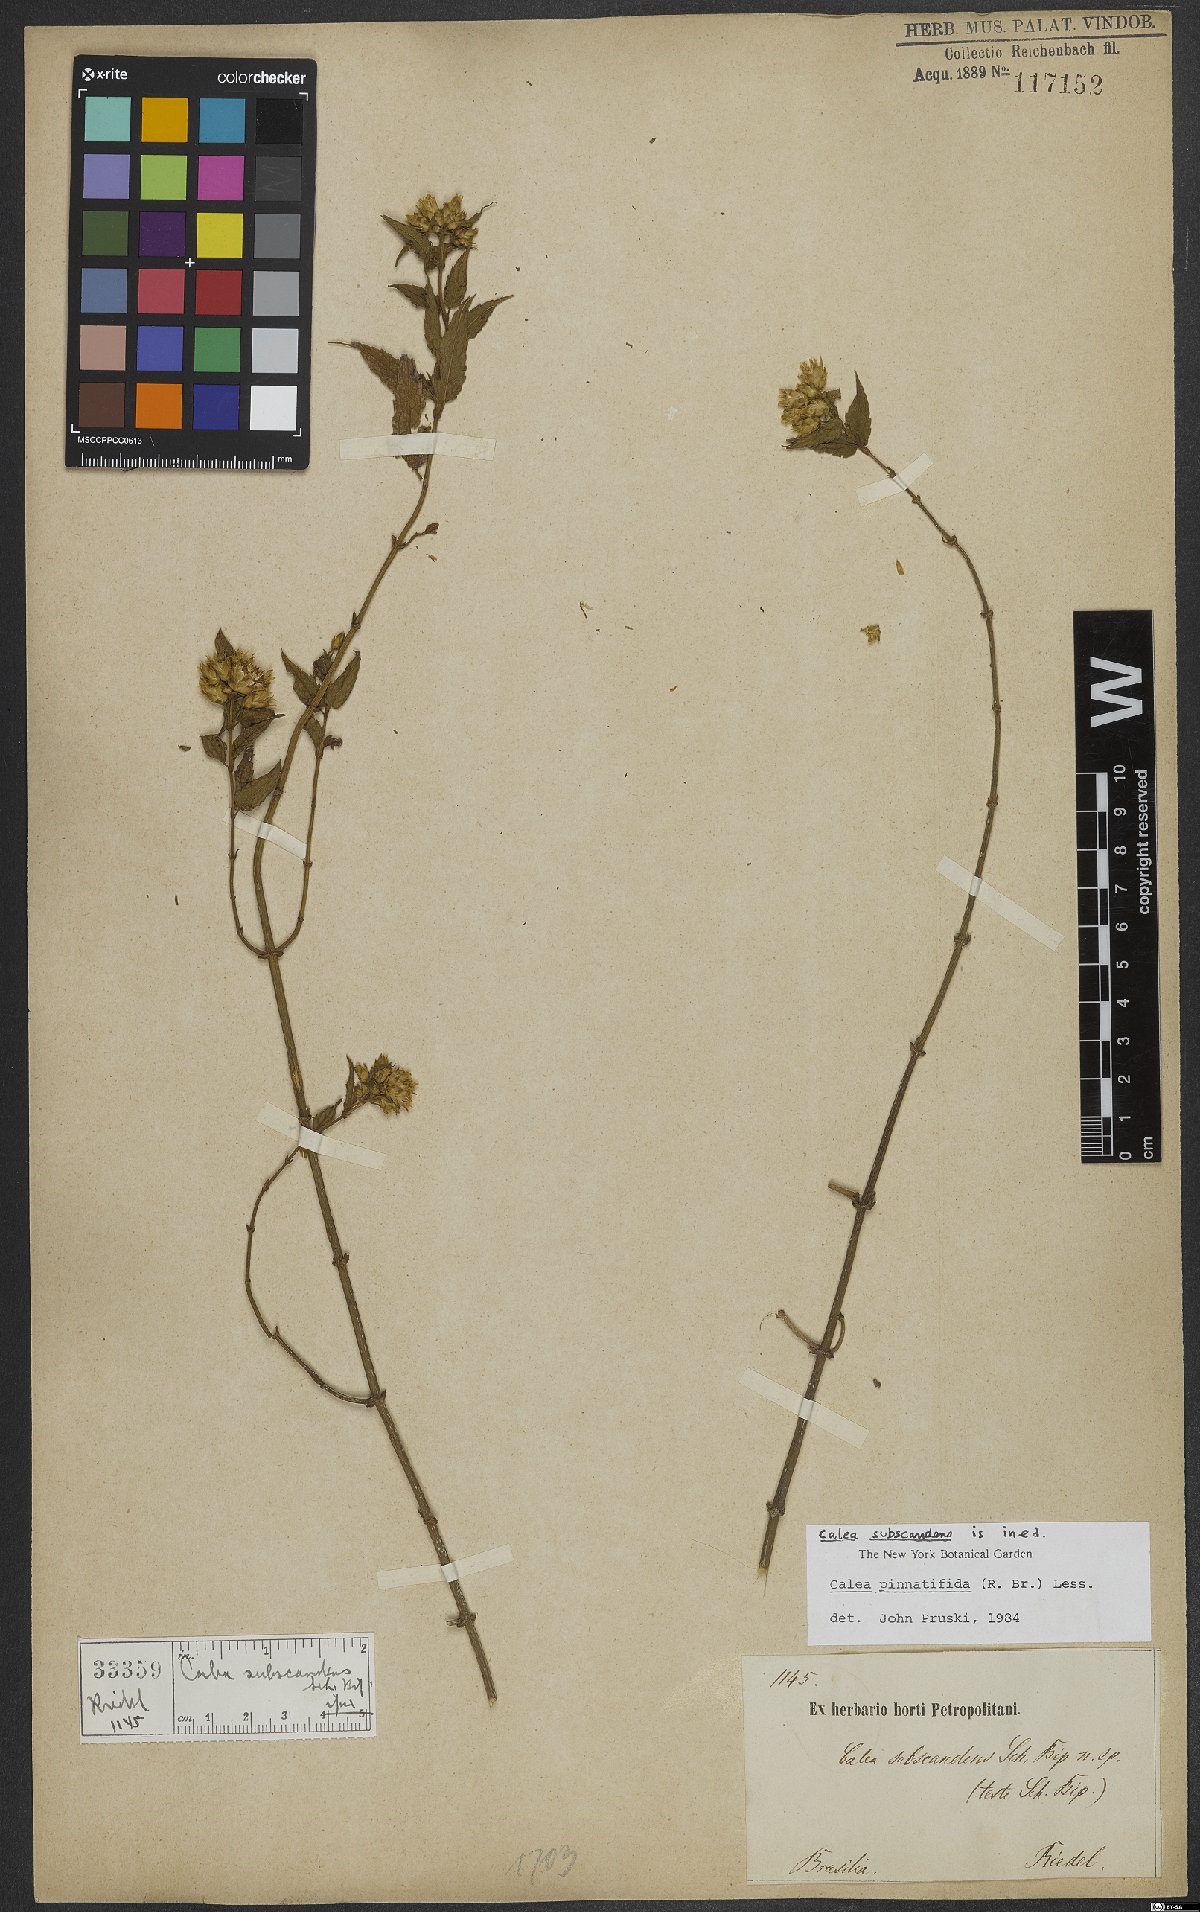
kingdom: Plantae
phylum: Tracheophyta
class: Magnoliopsida
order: Asterales
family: Asteraceae
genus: Calea
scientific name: Calea pinnatifida
